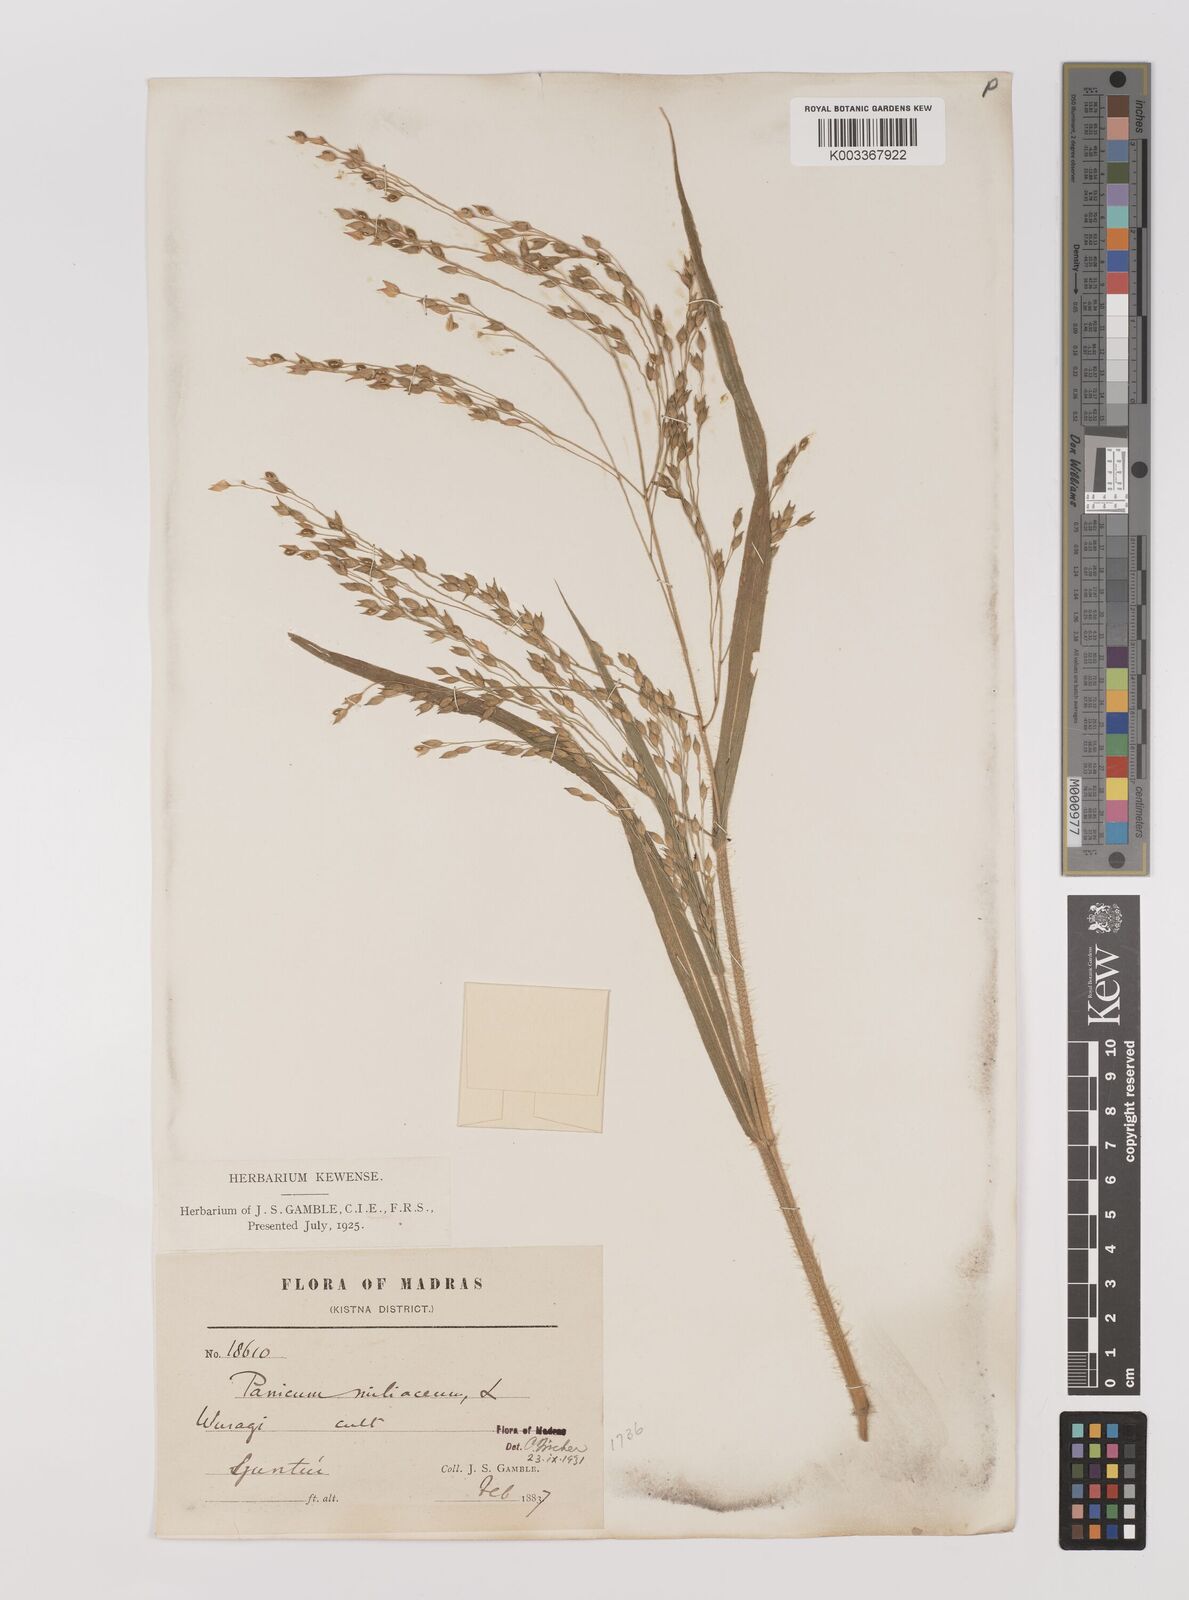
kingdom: Plantae
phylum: Tracheophyta
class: Liliopsida
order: Poales
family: Poaceae
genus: Panicum
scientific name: Panicum miliaceum
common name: Common millet
